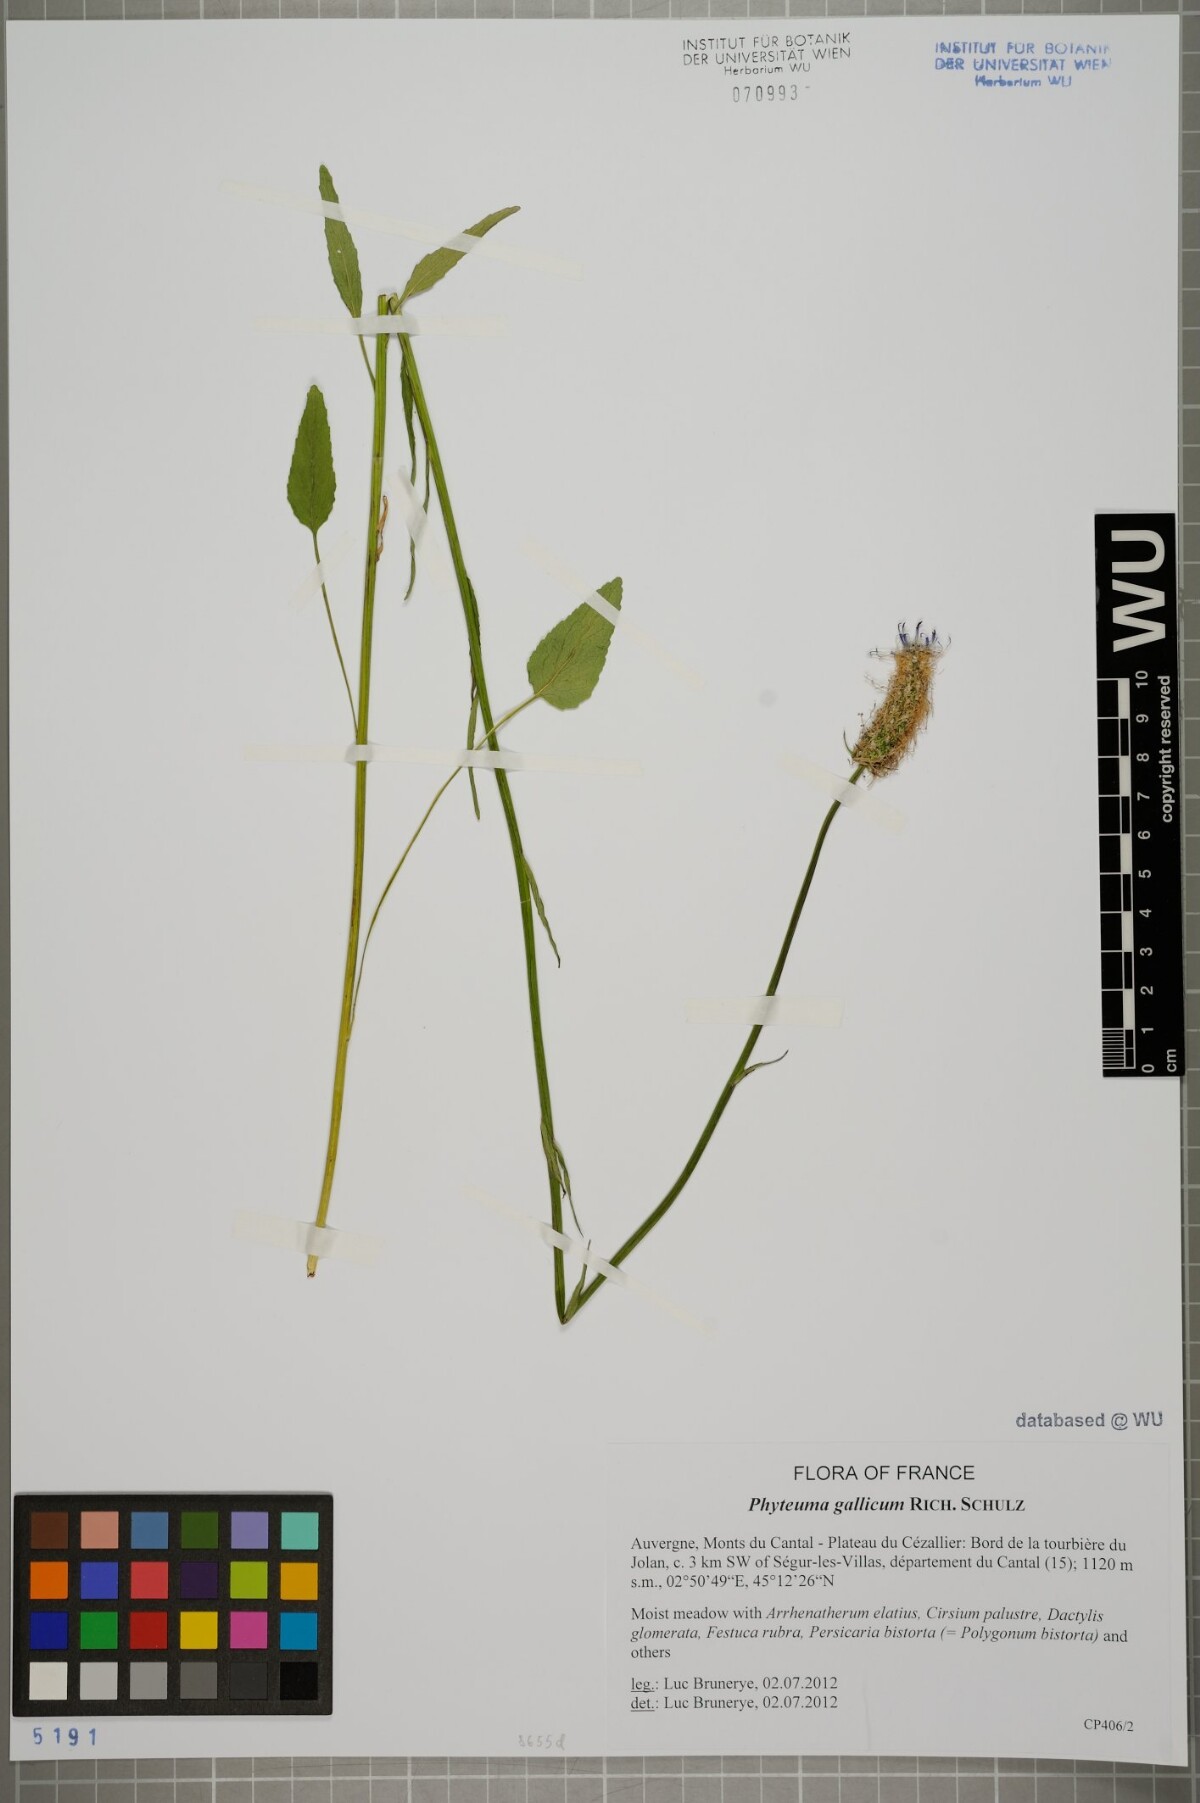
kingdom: Plantae
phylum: Tracheophyta
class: Magnoliopsida
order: Asterales
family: Campanulaceae
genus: Phyteuma
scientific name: Phyteuma gallicum
